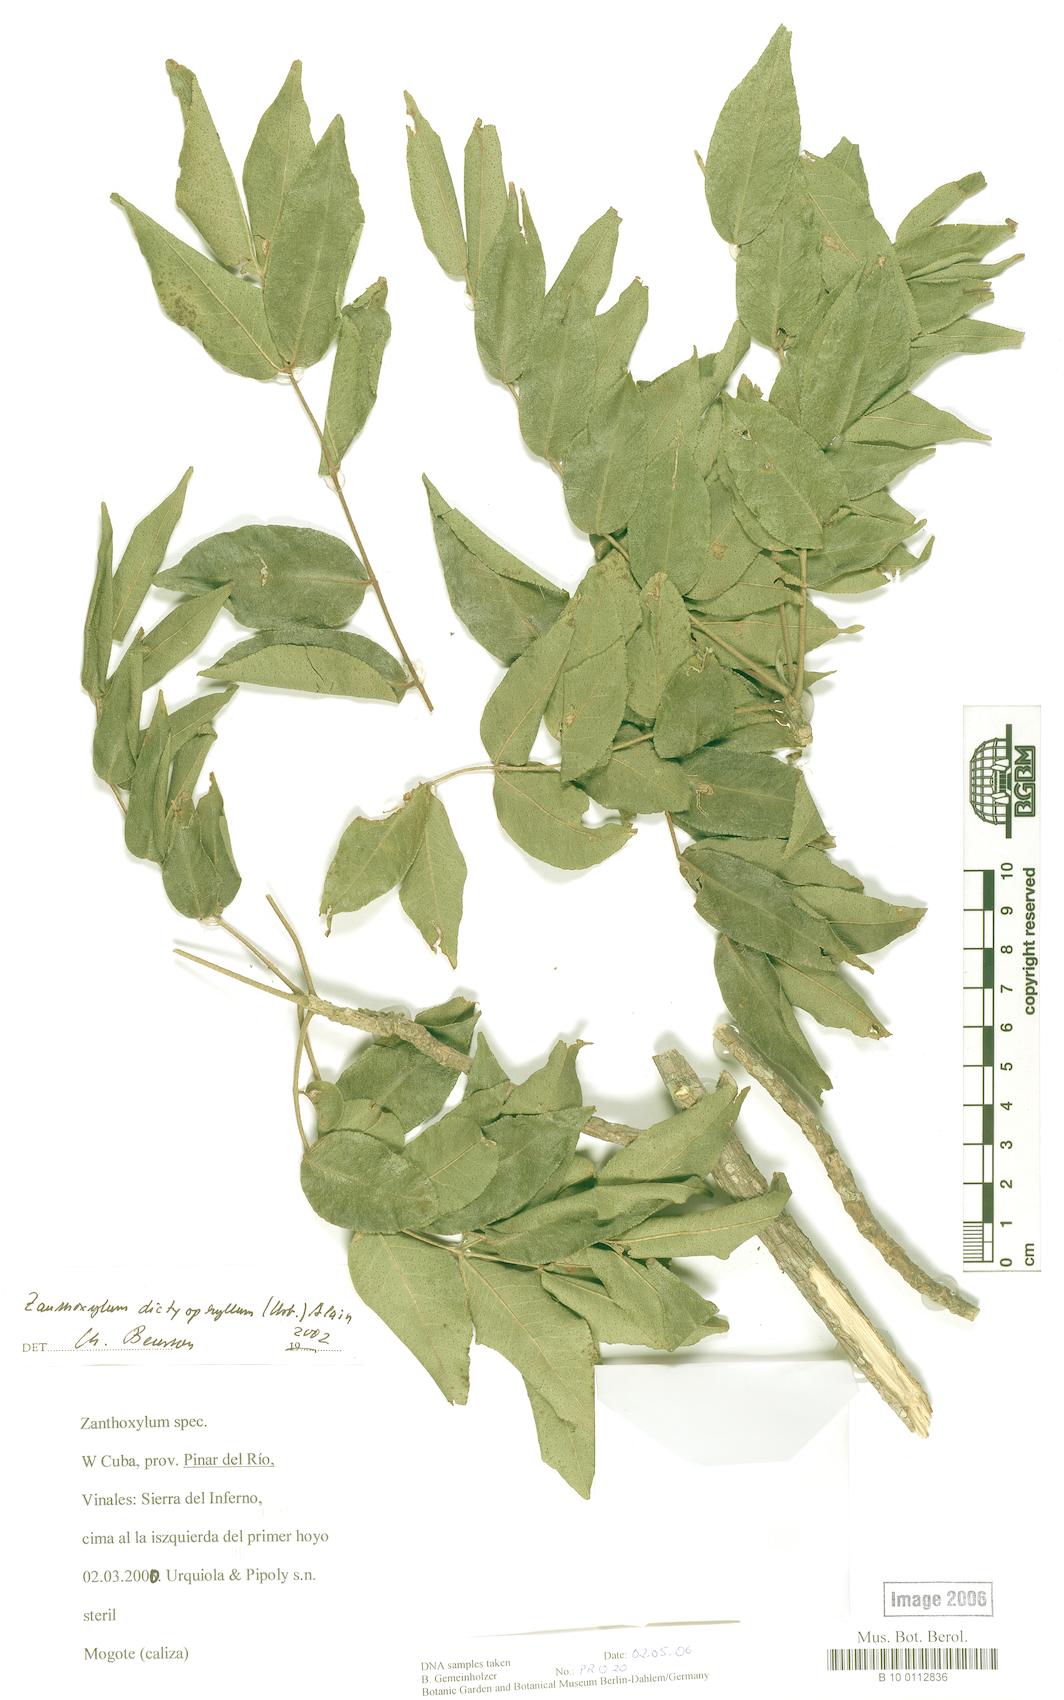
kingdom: Plantae
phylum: Tracheophyta
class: Magnoliopsida
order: Sapindales
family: Rutaceae
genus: Zanthoxylum
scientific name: Zanthoxylum flavum
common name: West indian satinwood
